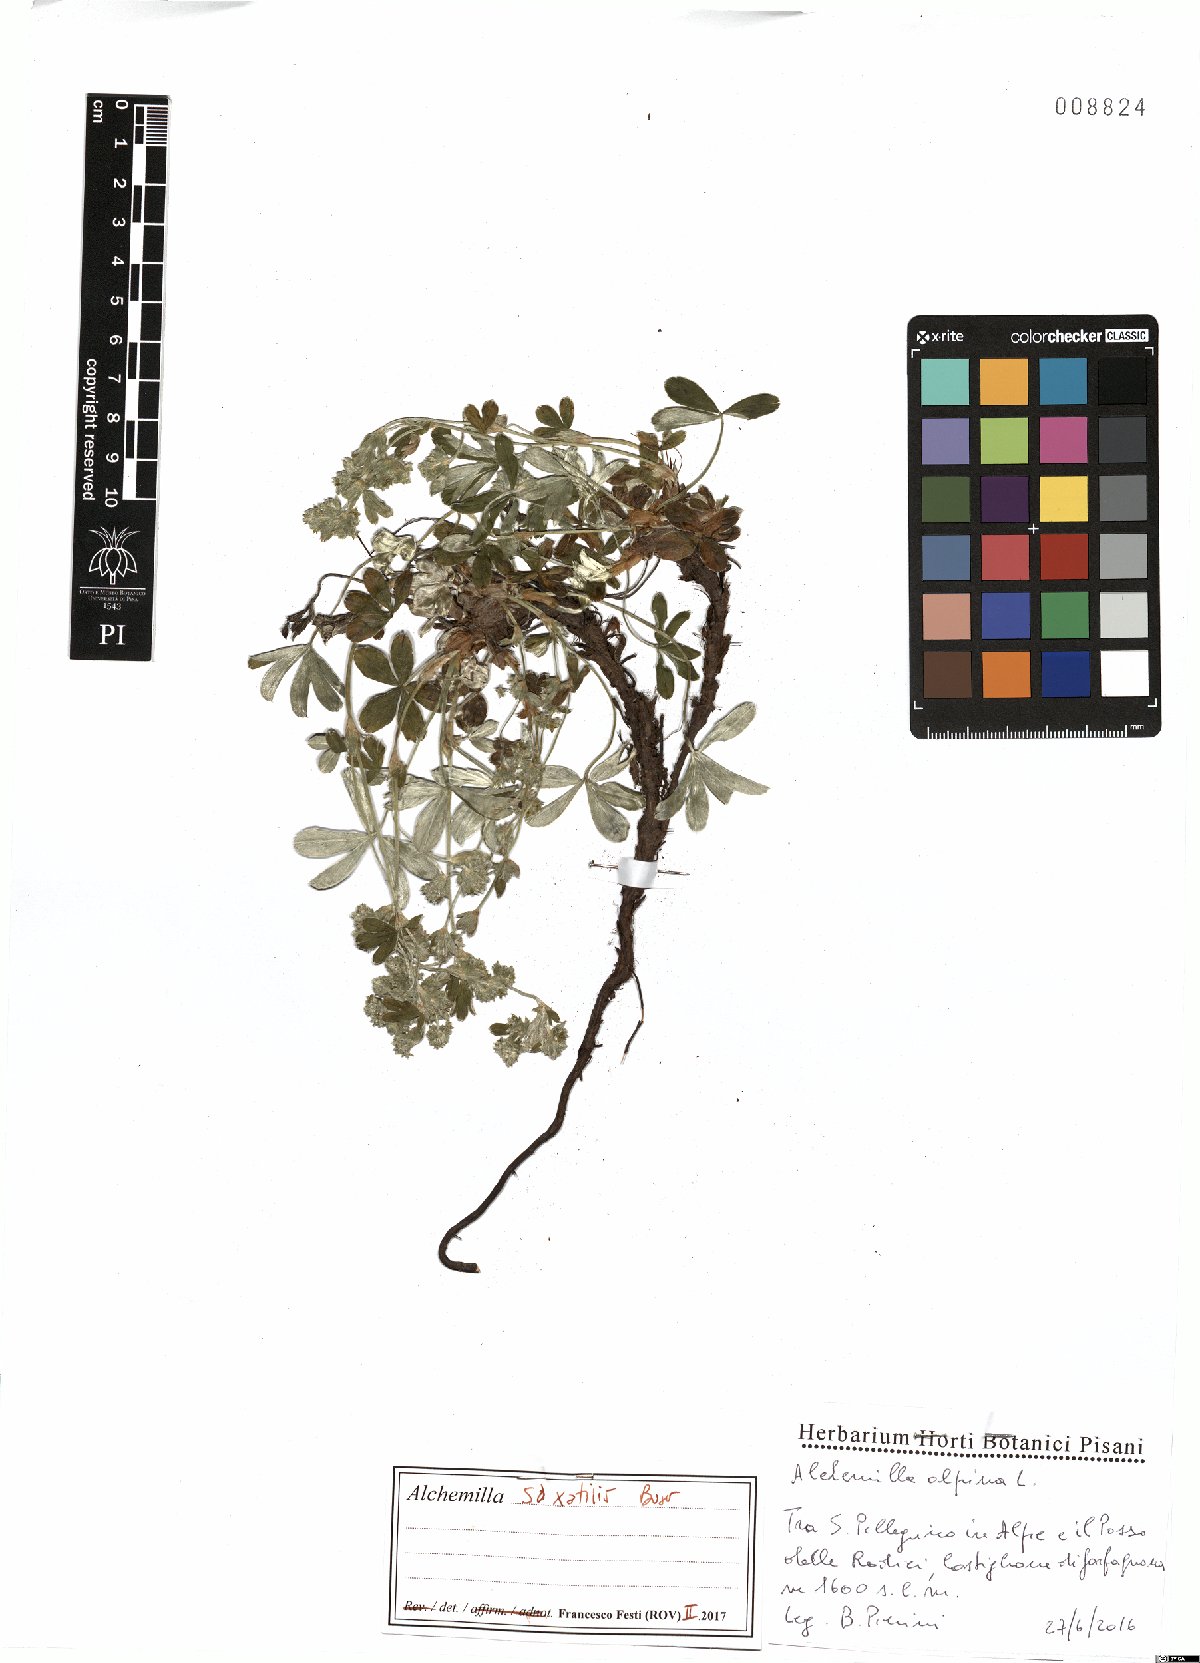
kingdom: Plantae
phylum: Tracheophyta
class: Magnoliopsida
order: Rosales
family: Rosaceae
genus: Alchemilla
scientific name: Alchemilla saxatilis
